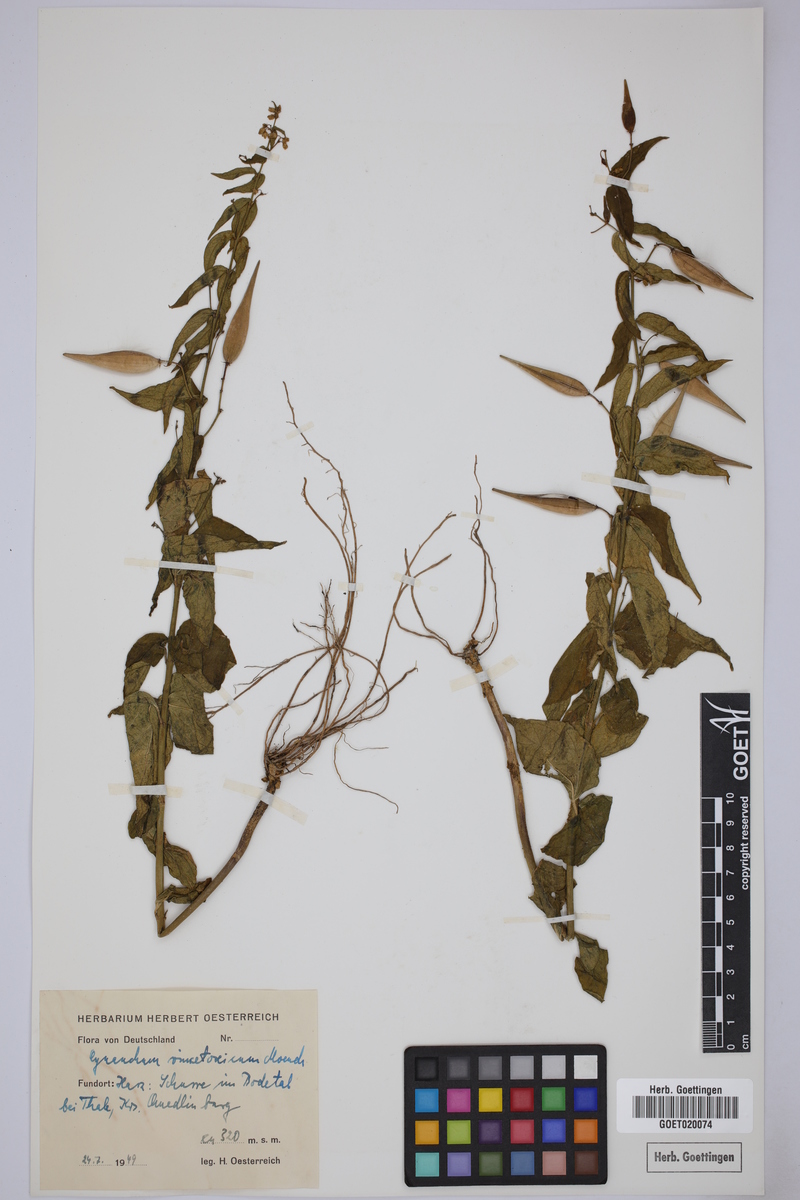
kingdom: Plantae
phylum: Tracheophyta
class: Magnoliopsida
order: Gentianales
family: Apocynaceae
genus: Vincetoxicum
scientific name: Vincetoxicum hirundinaria
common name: White swallowwort
